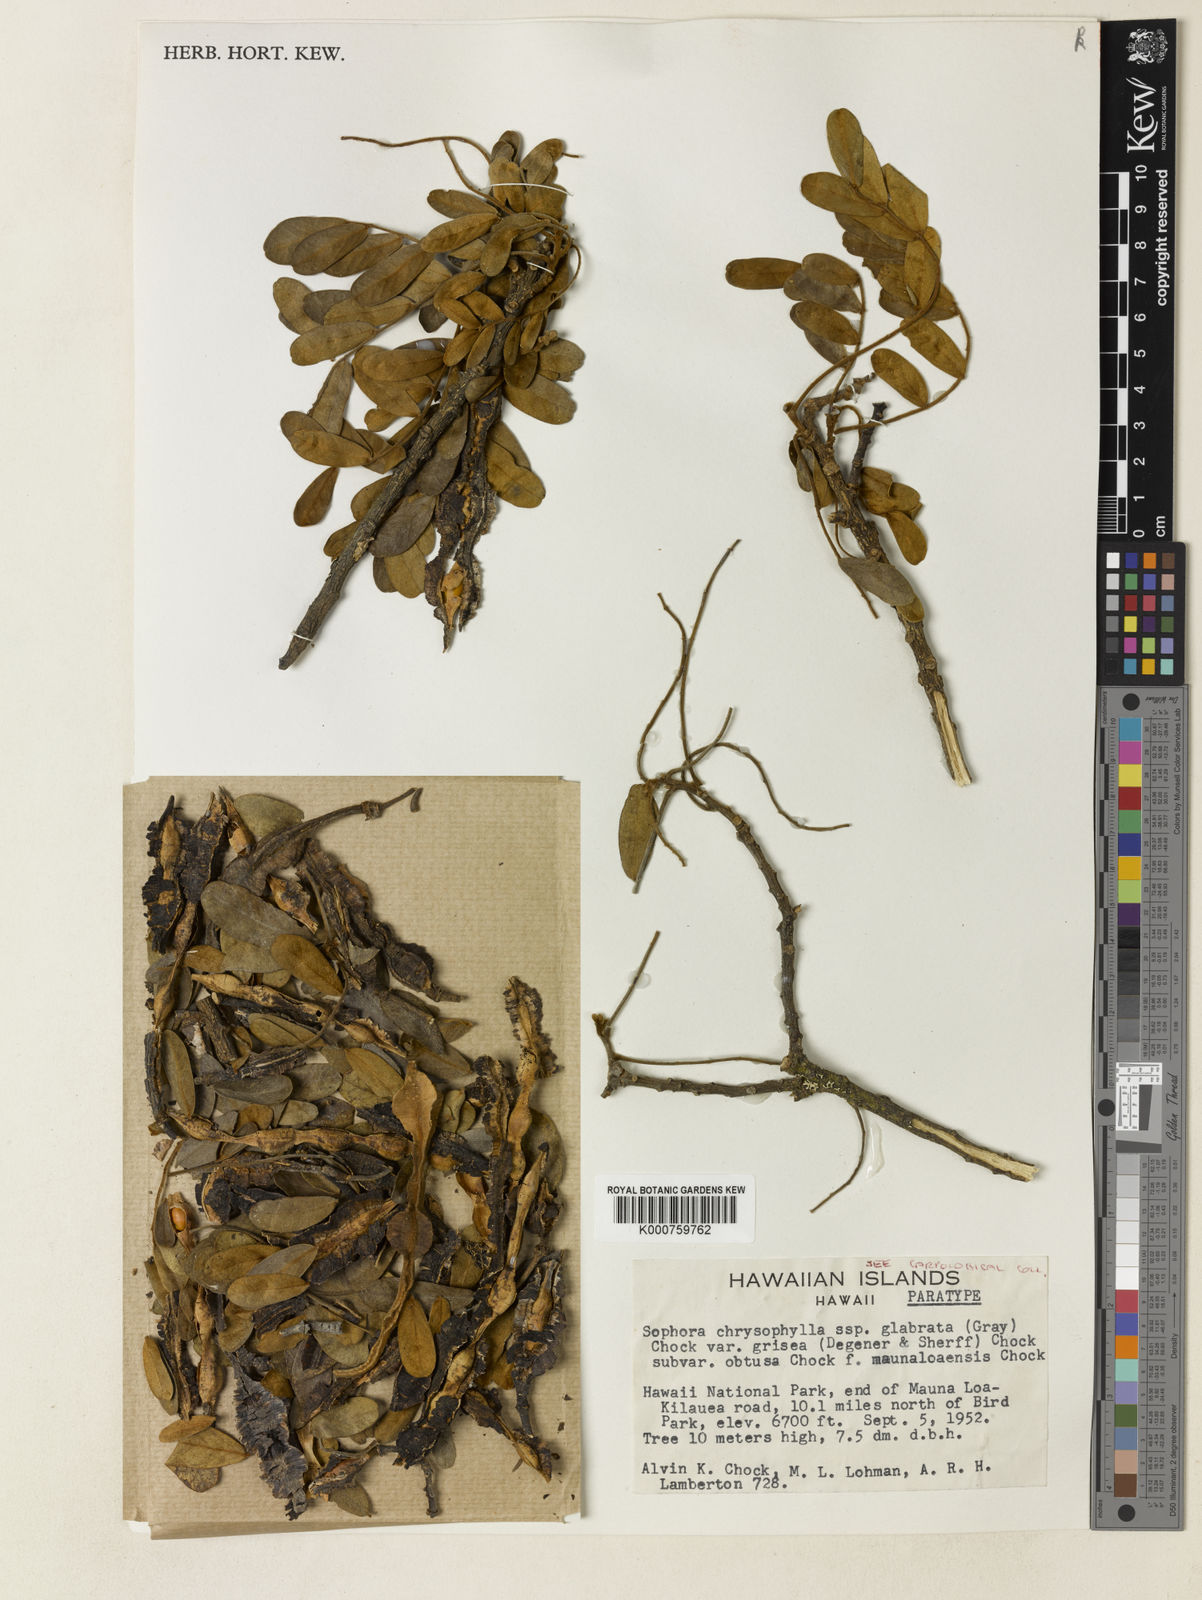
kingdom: Plantae
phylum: Tracheophyta
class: Magnoliopsida
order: Fabales
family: Fabaceae
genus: Sophora
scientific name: Sophora chrysophylla
